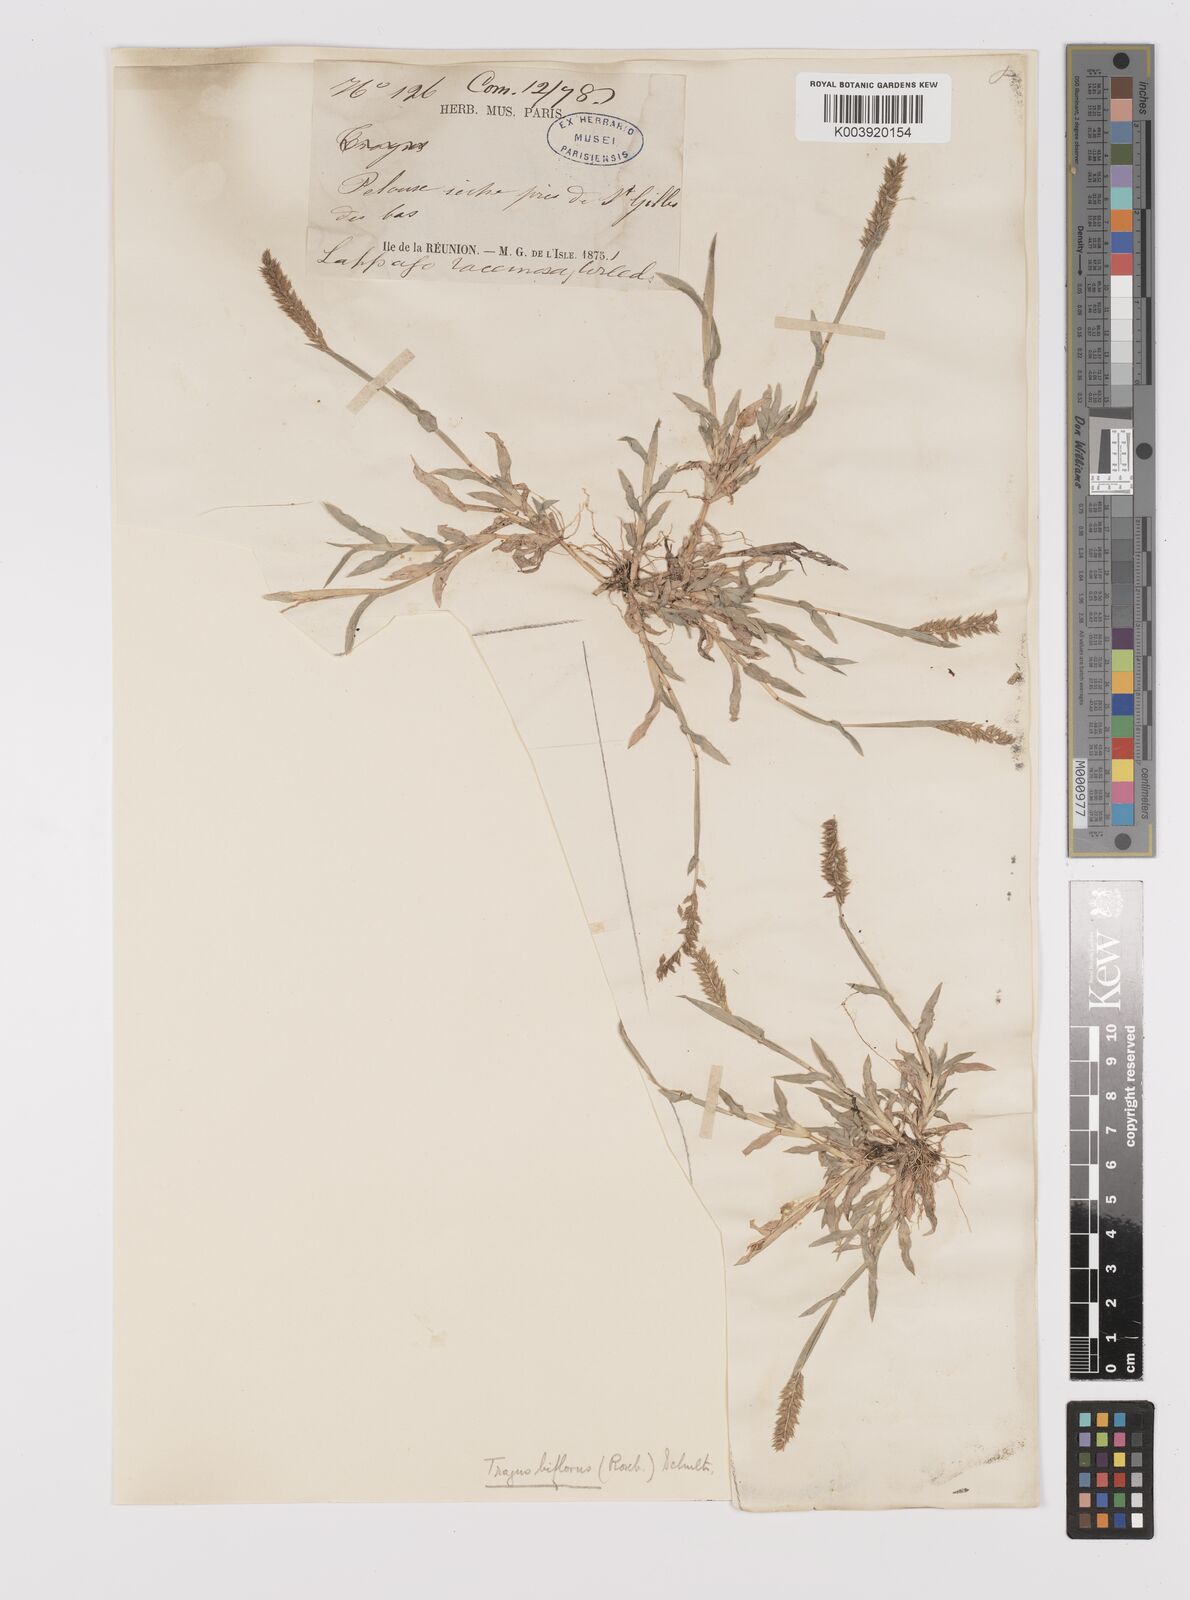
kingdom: Plantae
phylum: Tracheophyta
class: Liliopsida
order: Poales
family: Poaceae
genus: Tragus
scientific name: Tragus mongolorum
